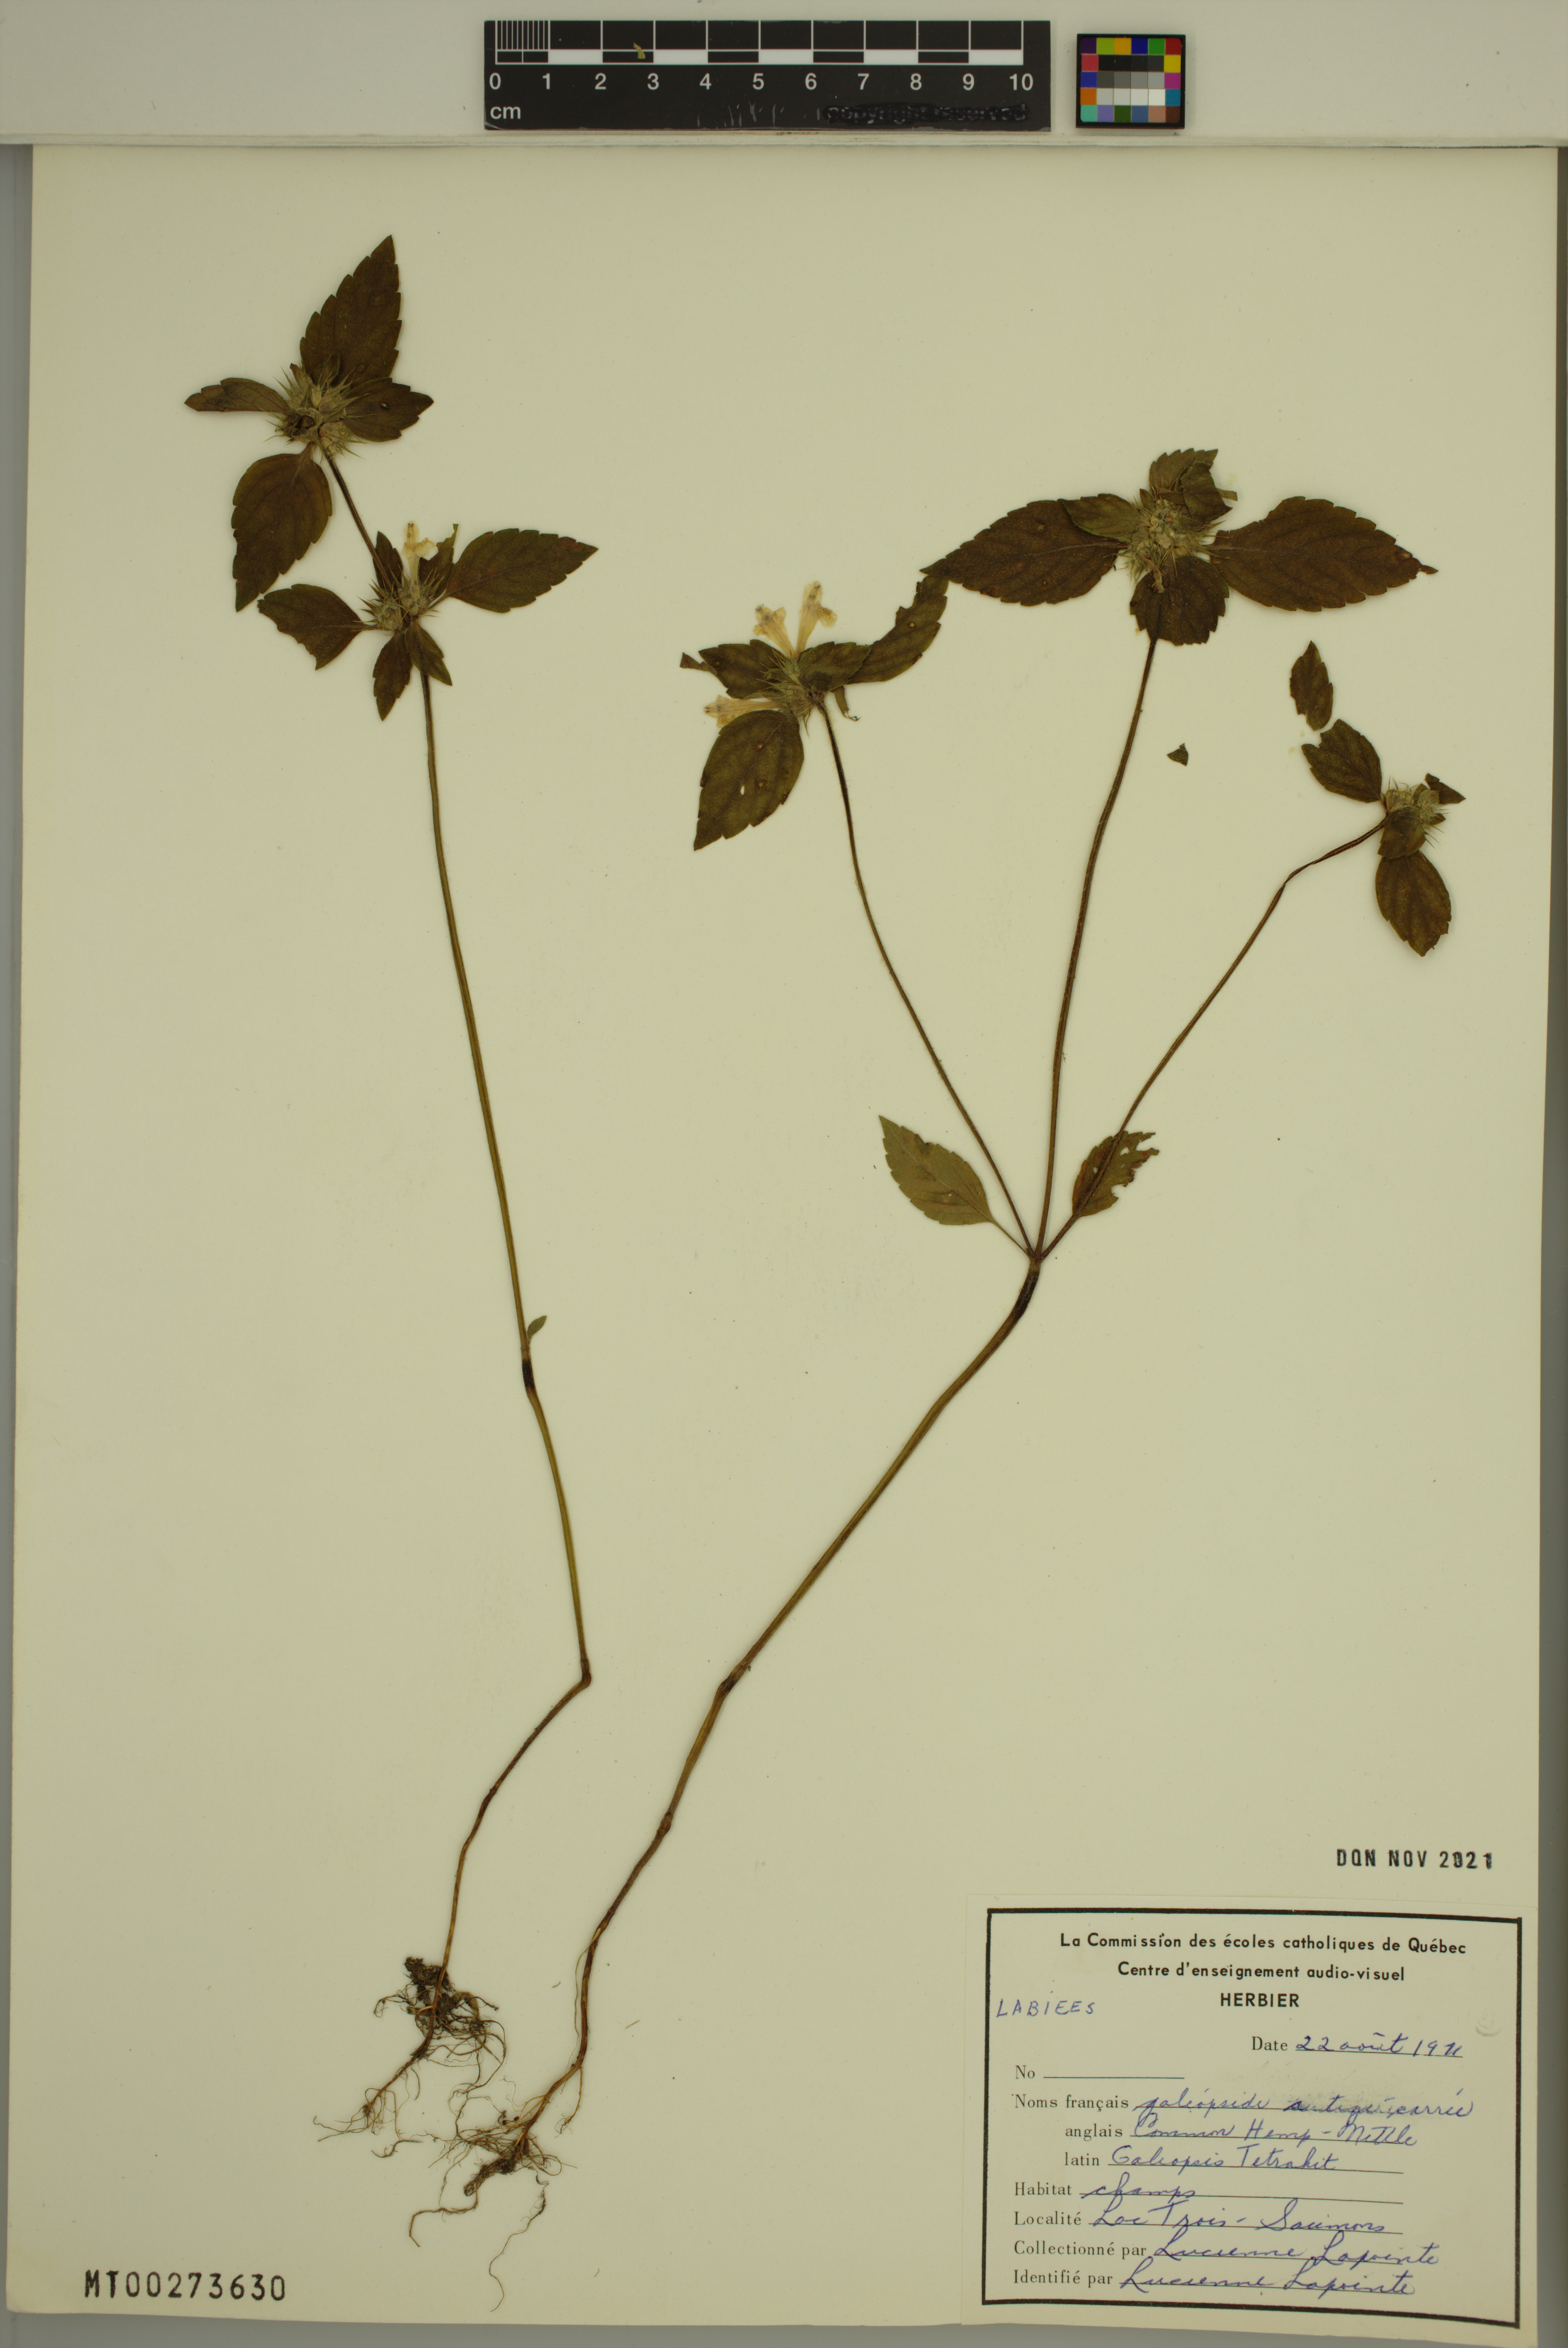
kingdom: Plantae
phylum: Tracheophyta
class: Magnoliopsida
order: Lamiales
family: Lamiaceae
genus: Galeopsis
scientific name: Galeopsis tetrahit
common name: Common hemp-nettle
